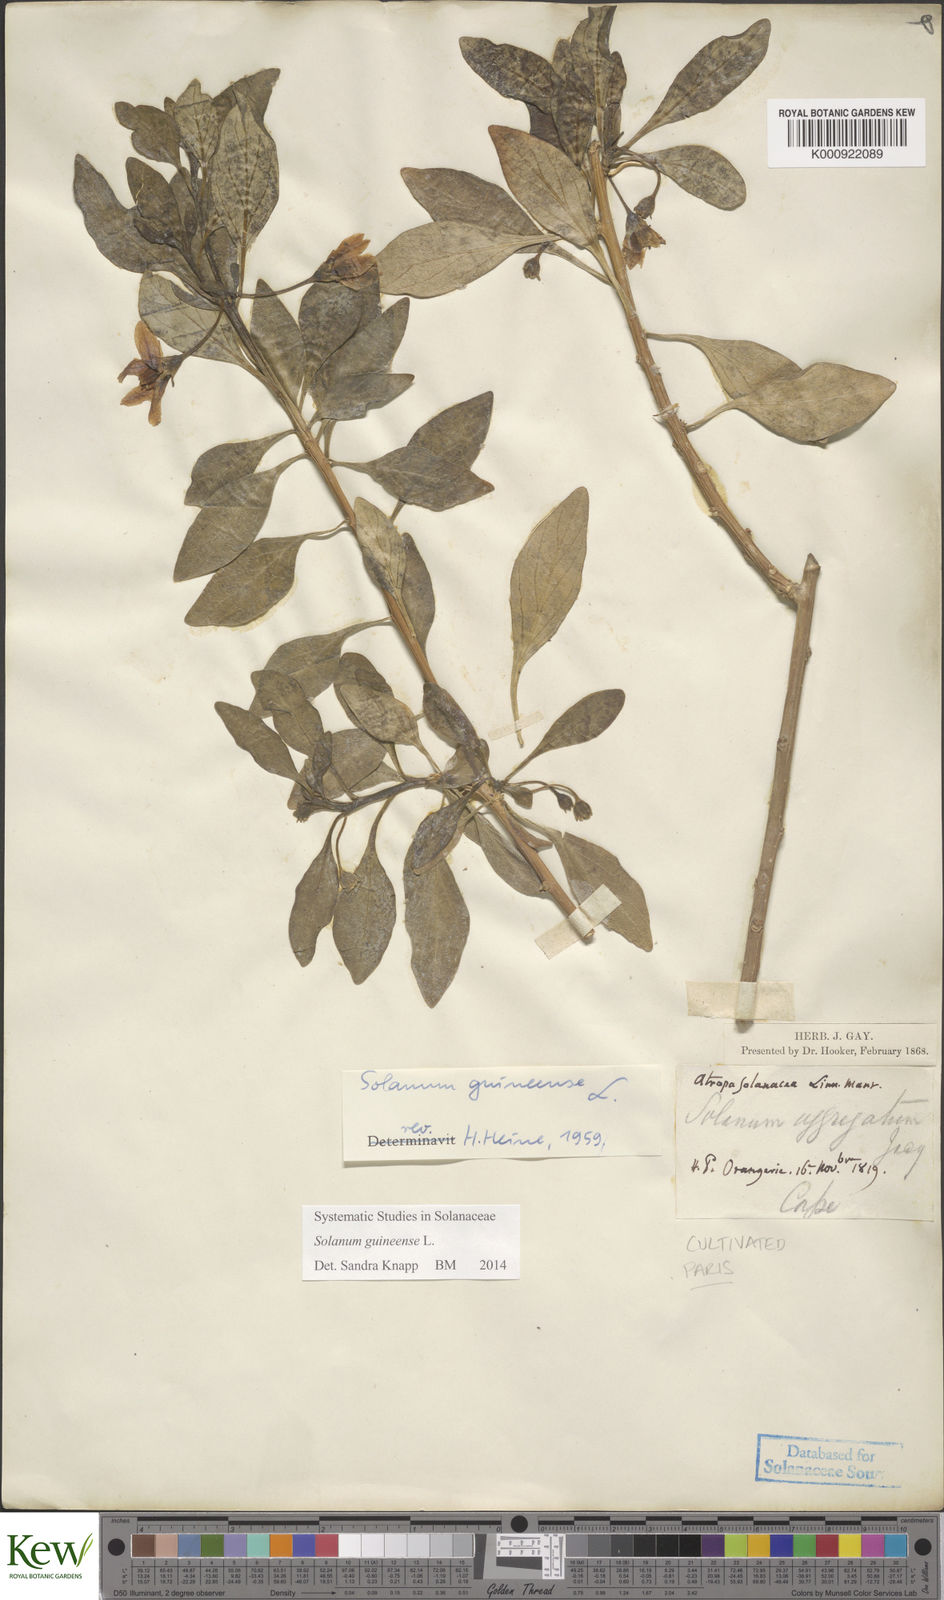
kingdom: Plantae
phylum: Tracheophyta
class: Magnoliopsida
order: Solanales
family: Solanaceae
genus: Solanum
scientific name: Solanum guineense
